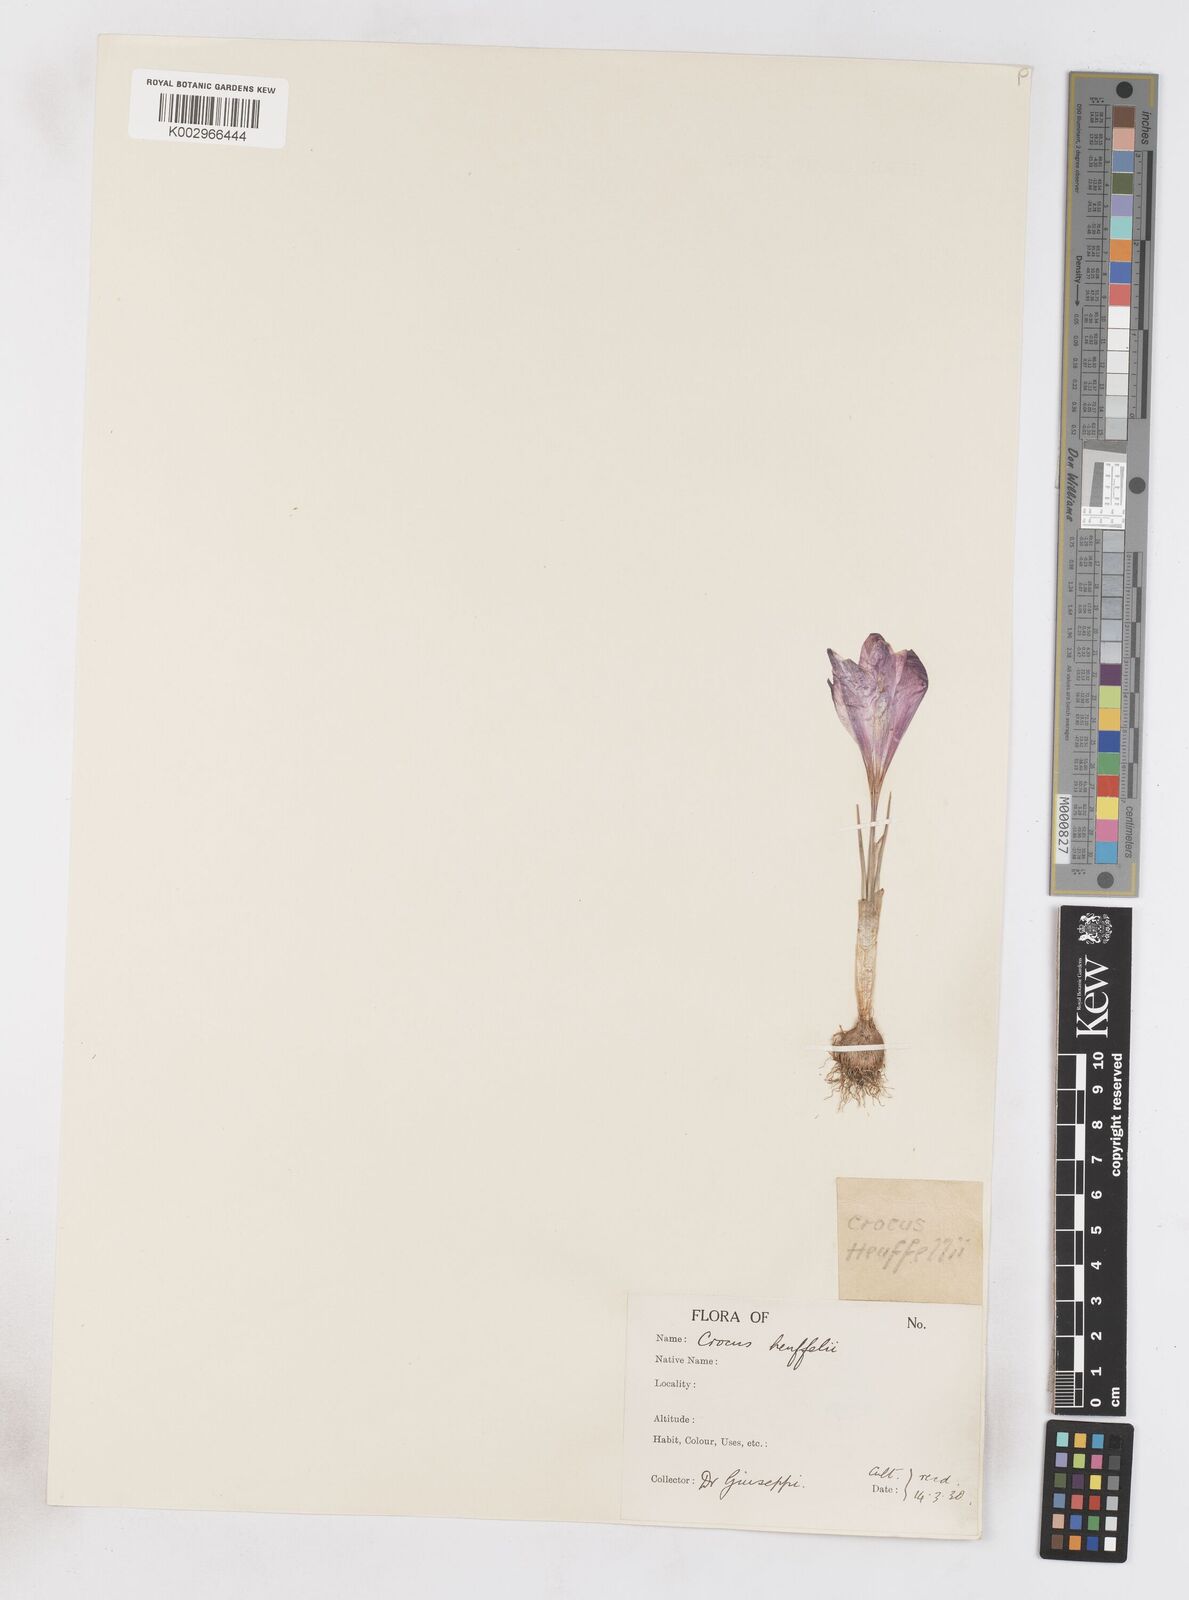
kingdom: Plantae
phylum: Tracheophyta
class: Liliopsida
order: Asparagales
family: Iridaceae
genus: Crocus
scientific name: Crocus vernus
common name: Spring crocus
